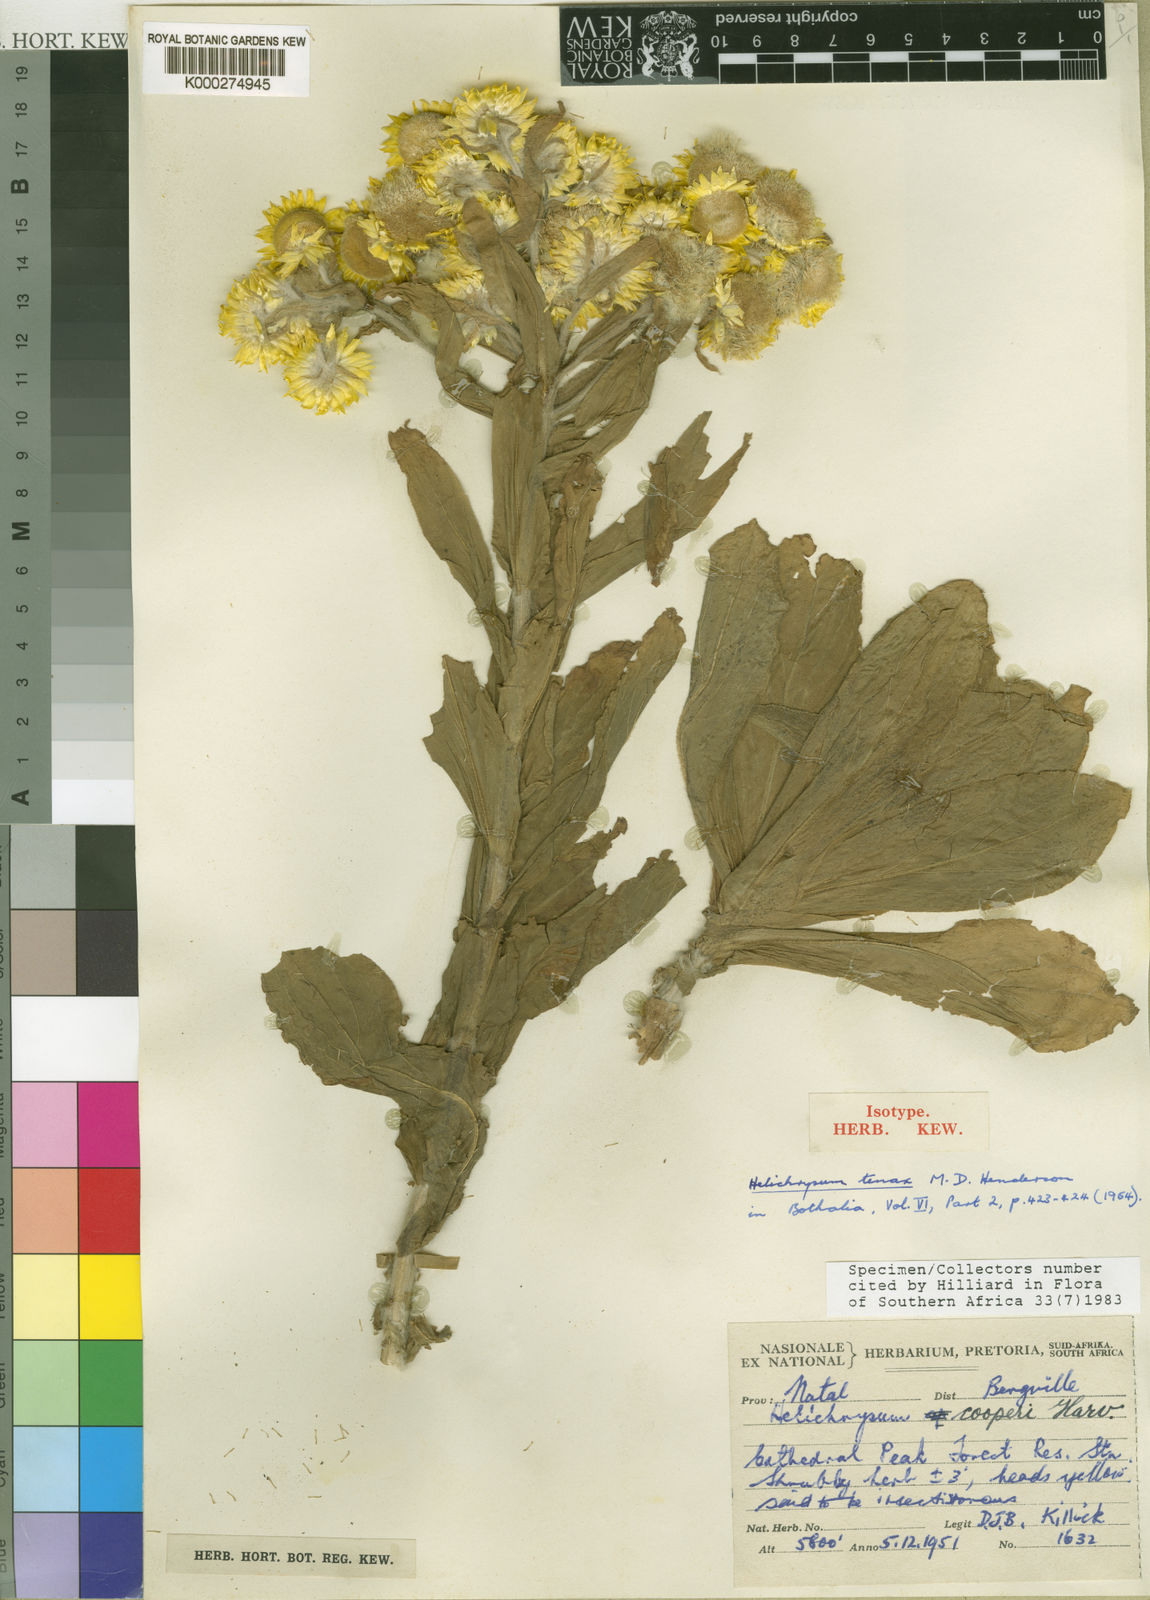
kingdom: Plantae
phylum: Tracheophyta
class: Magnoliopsida
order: Asterales
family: Asteraceae
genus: Helichrysum
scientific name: Helichrysum tenax
